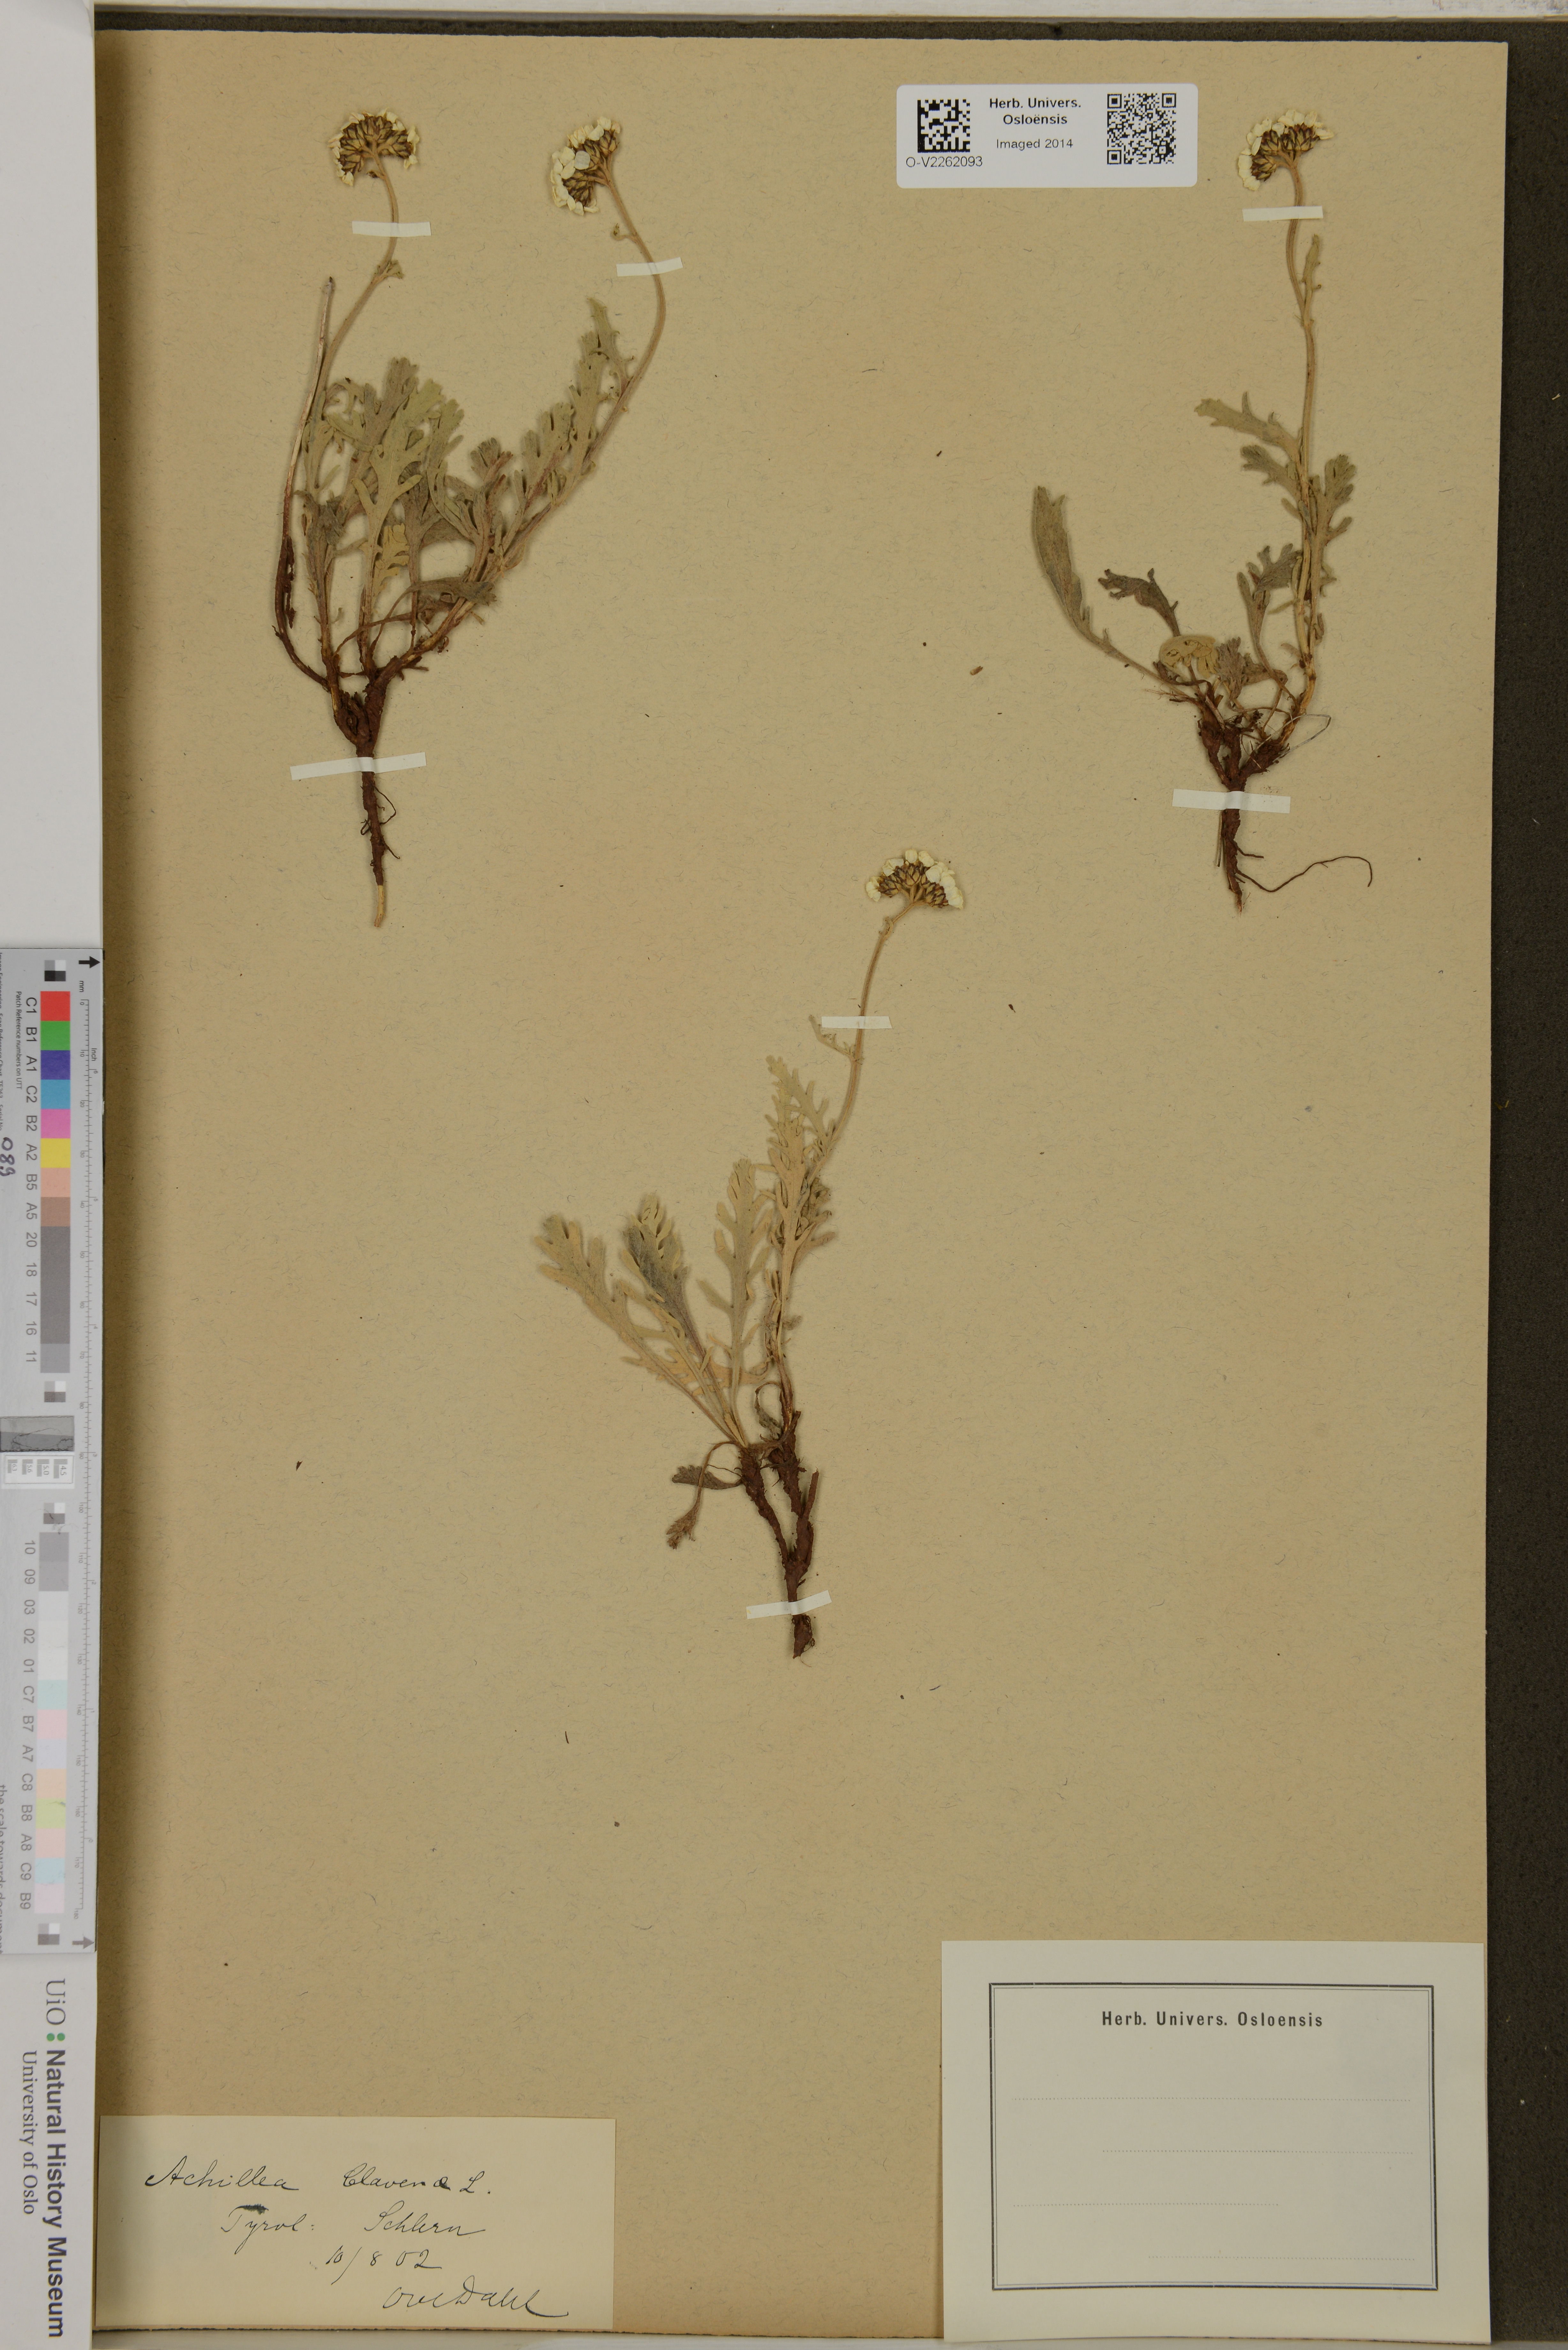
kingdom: Plantae
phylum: Tracheophyta
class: Magnoliopsida
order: Asterales
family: Asteraceae
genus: Achillea
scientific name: Achillea clavennae
